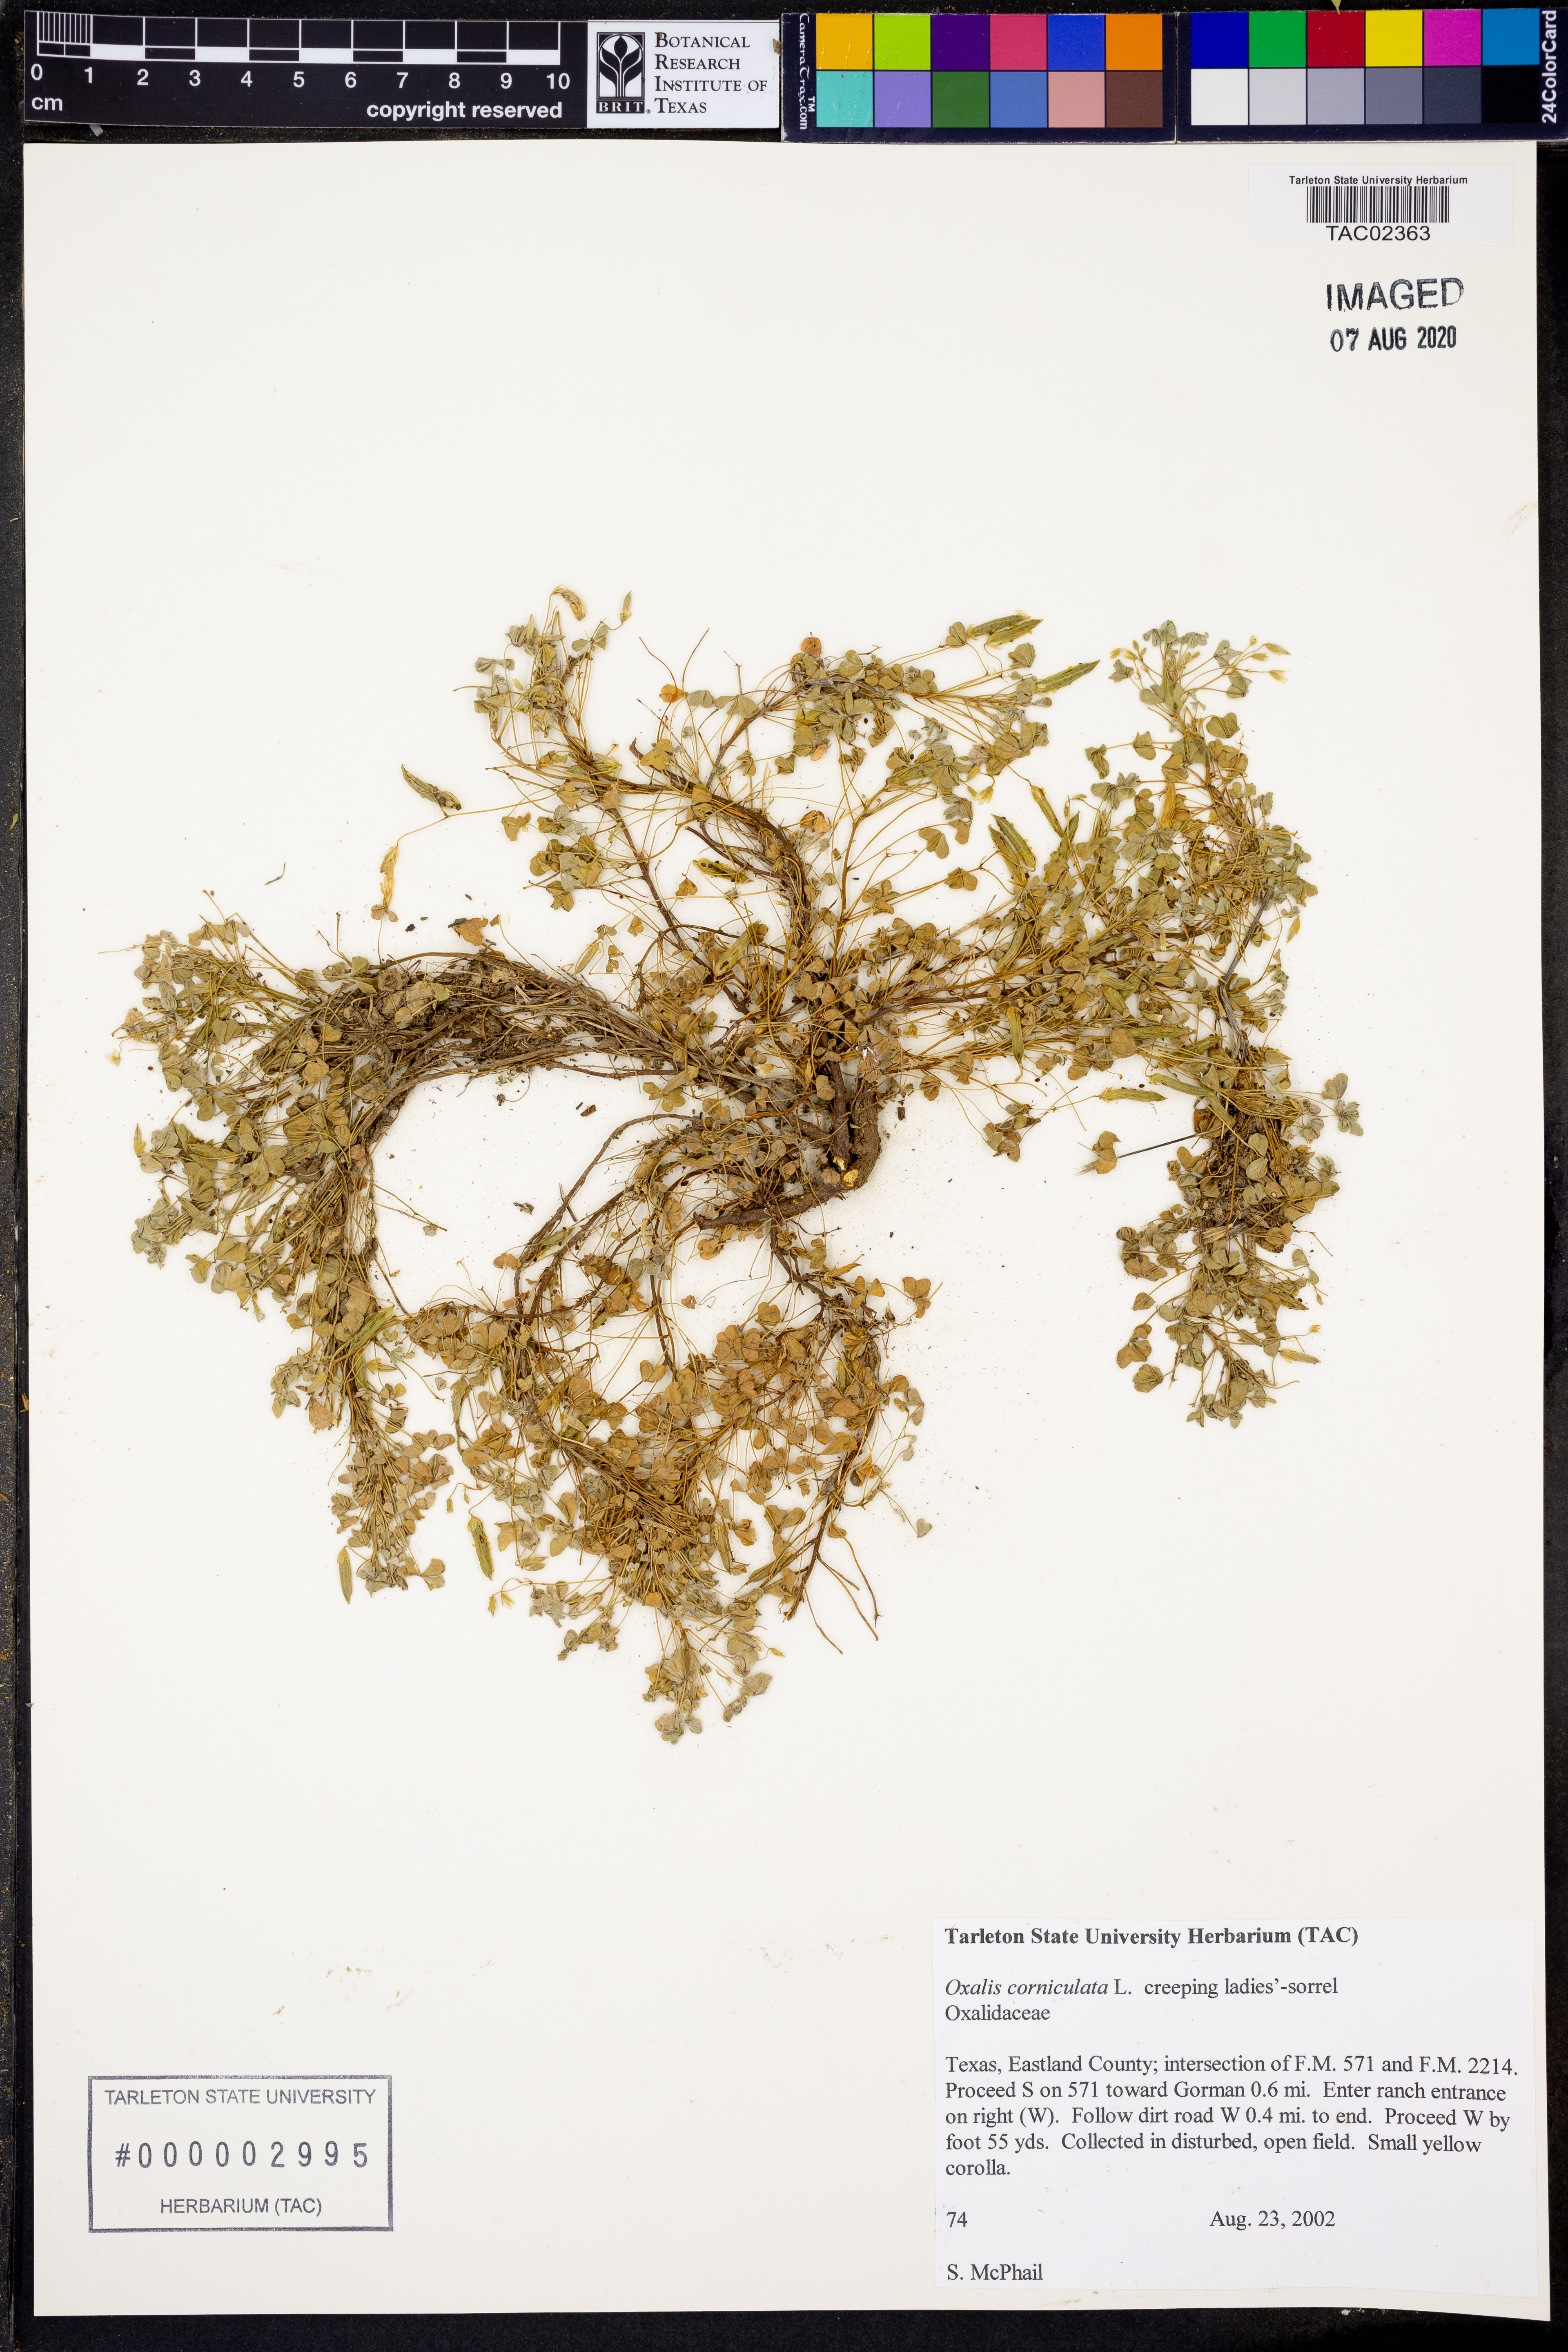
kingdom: Plantae
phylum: Tracheophyta
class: Magnoliopsida
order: Oxalidales
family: Oxalidaceae
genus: Oxalis
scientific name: Oxalis corniculata
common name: Procumbent yellow-sorrel
